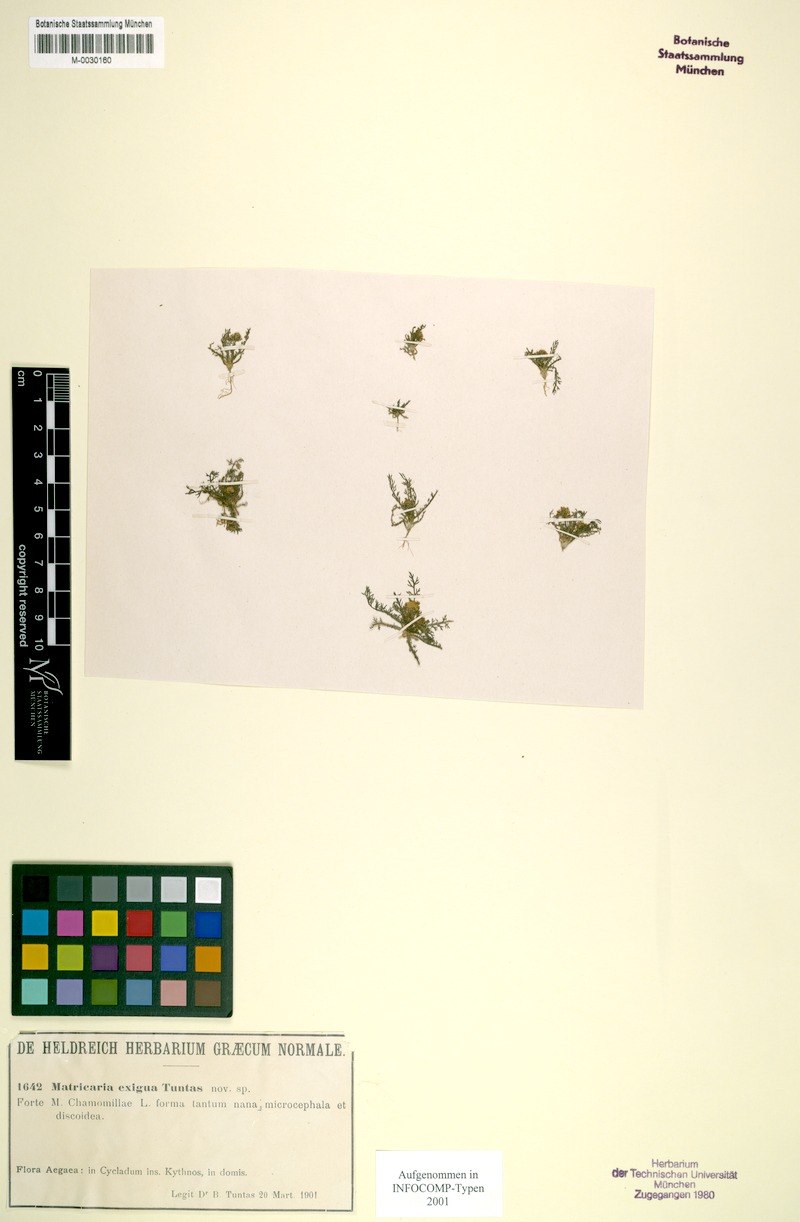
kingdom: Plantae
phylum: Tracheophyta
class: Magnoliopsida
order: Asterales
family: Asteraceae
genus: Matricaria
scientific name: Matricaria chamomilla
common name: Scented mayweed
